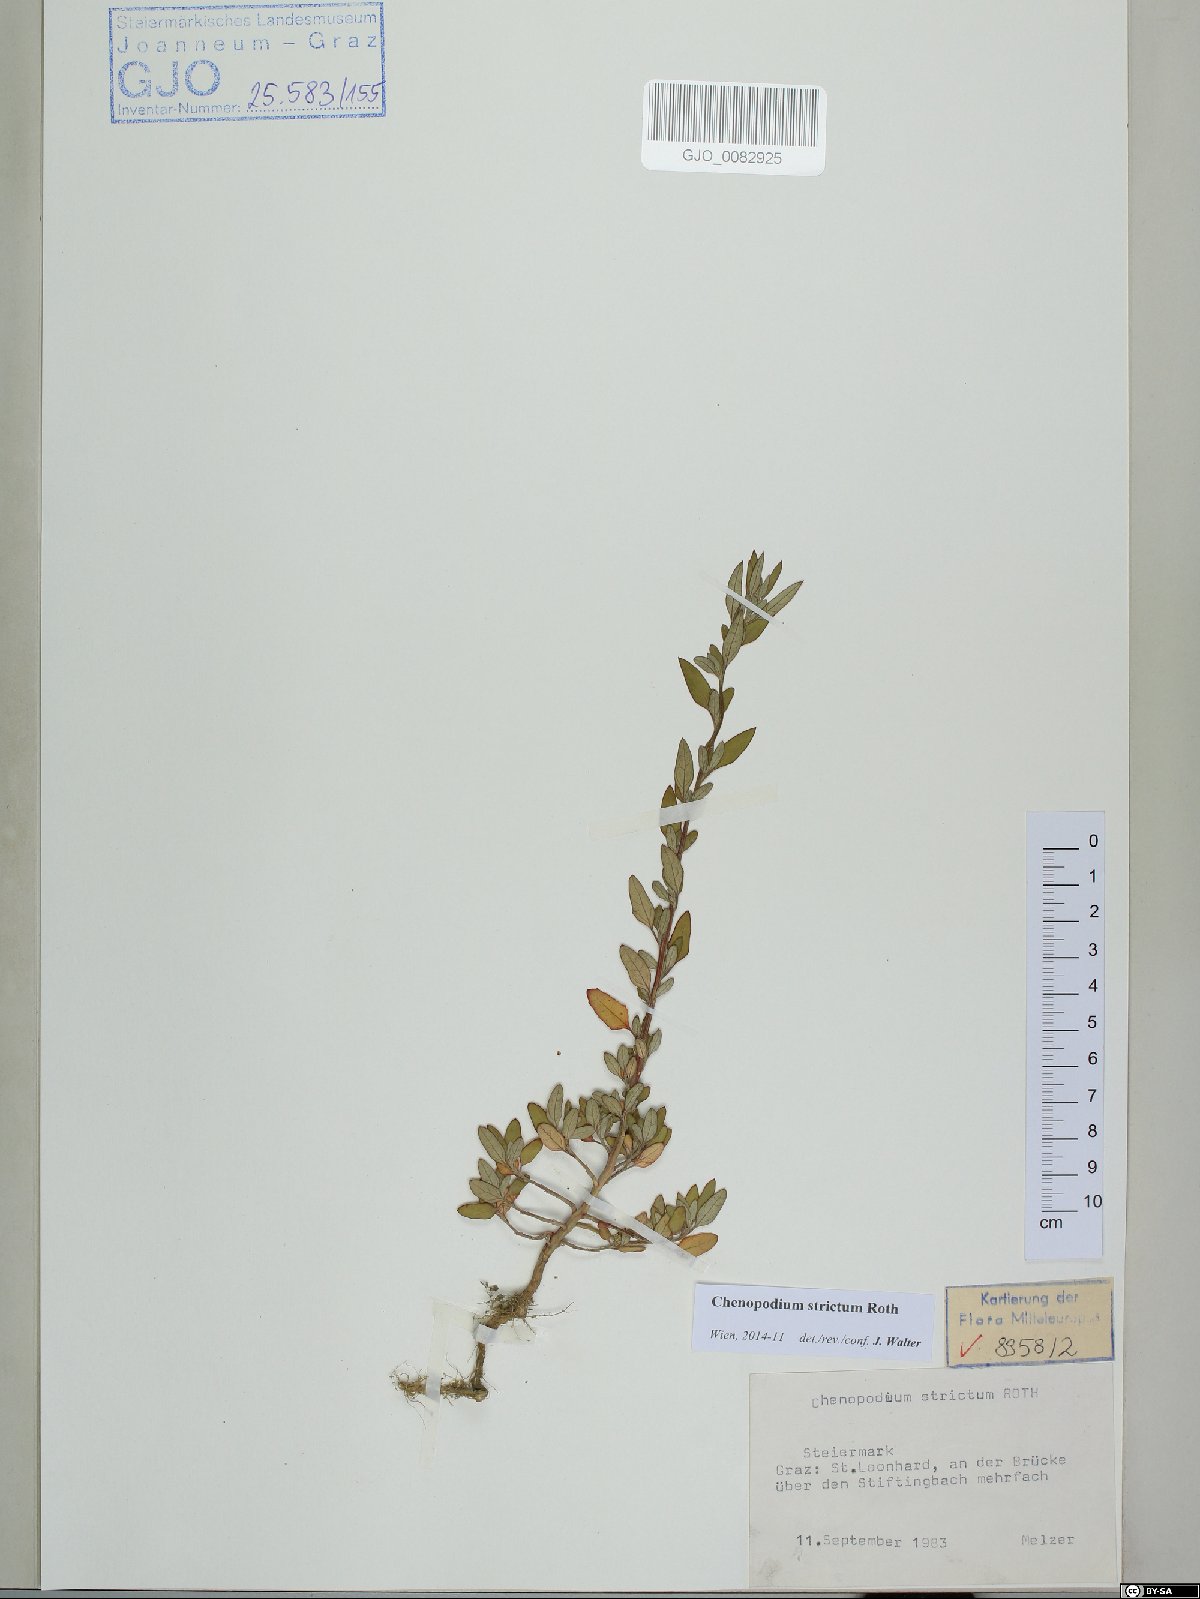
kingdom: Plantae
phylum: Tracheophyta
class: Magnoliopsida
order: Caryophyllales
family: Amaranthaceae
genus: Chenopodium
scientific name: Chenopodium album
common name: Fat-hen
